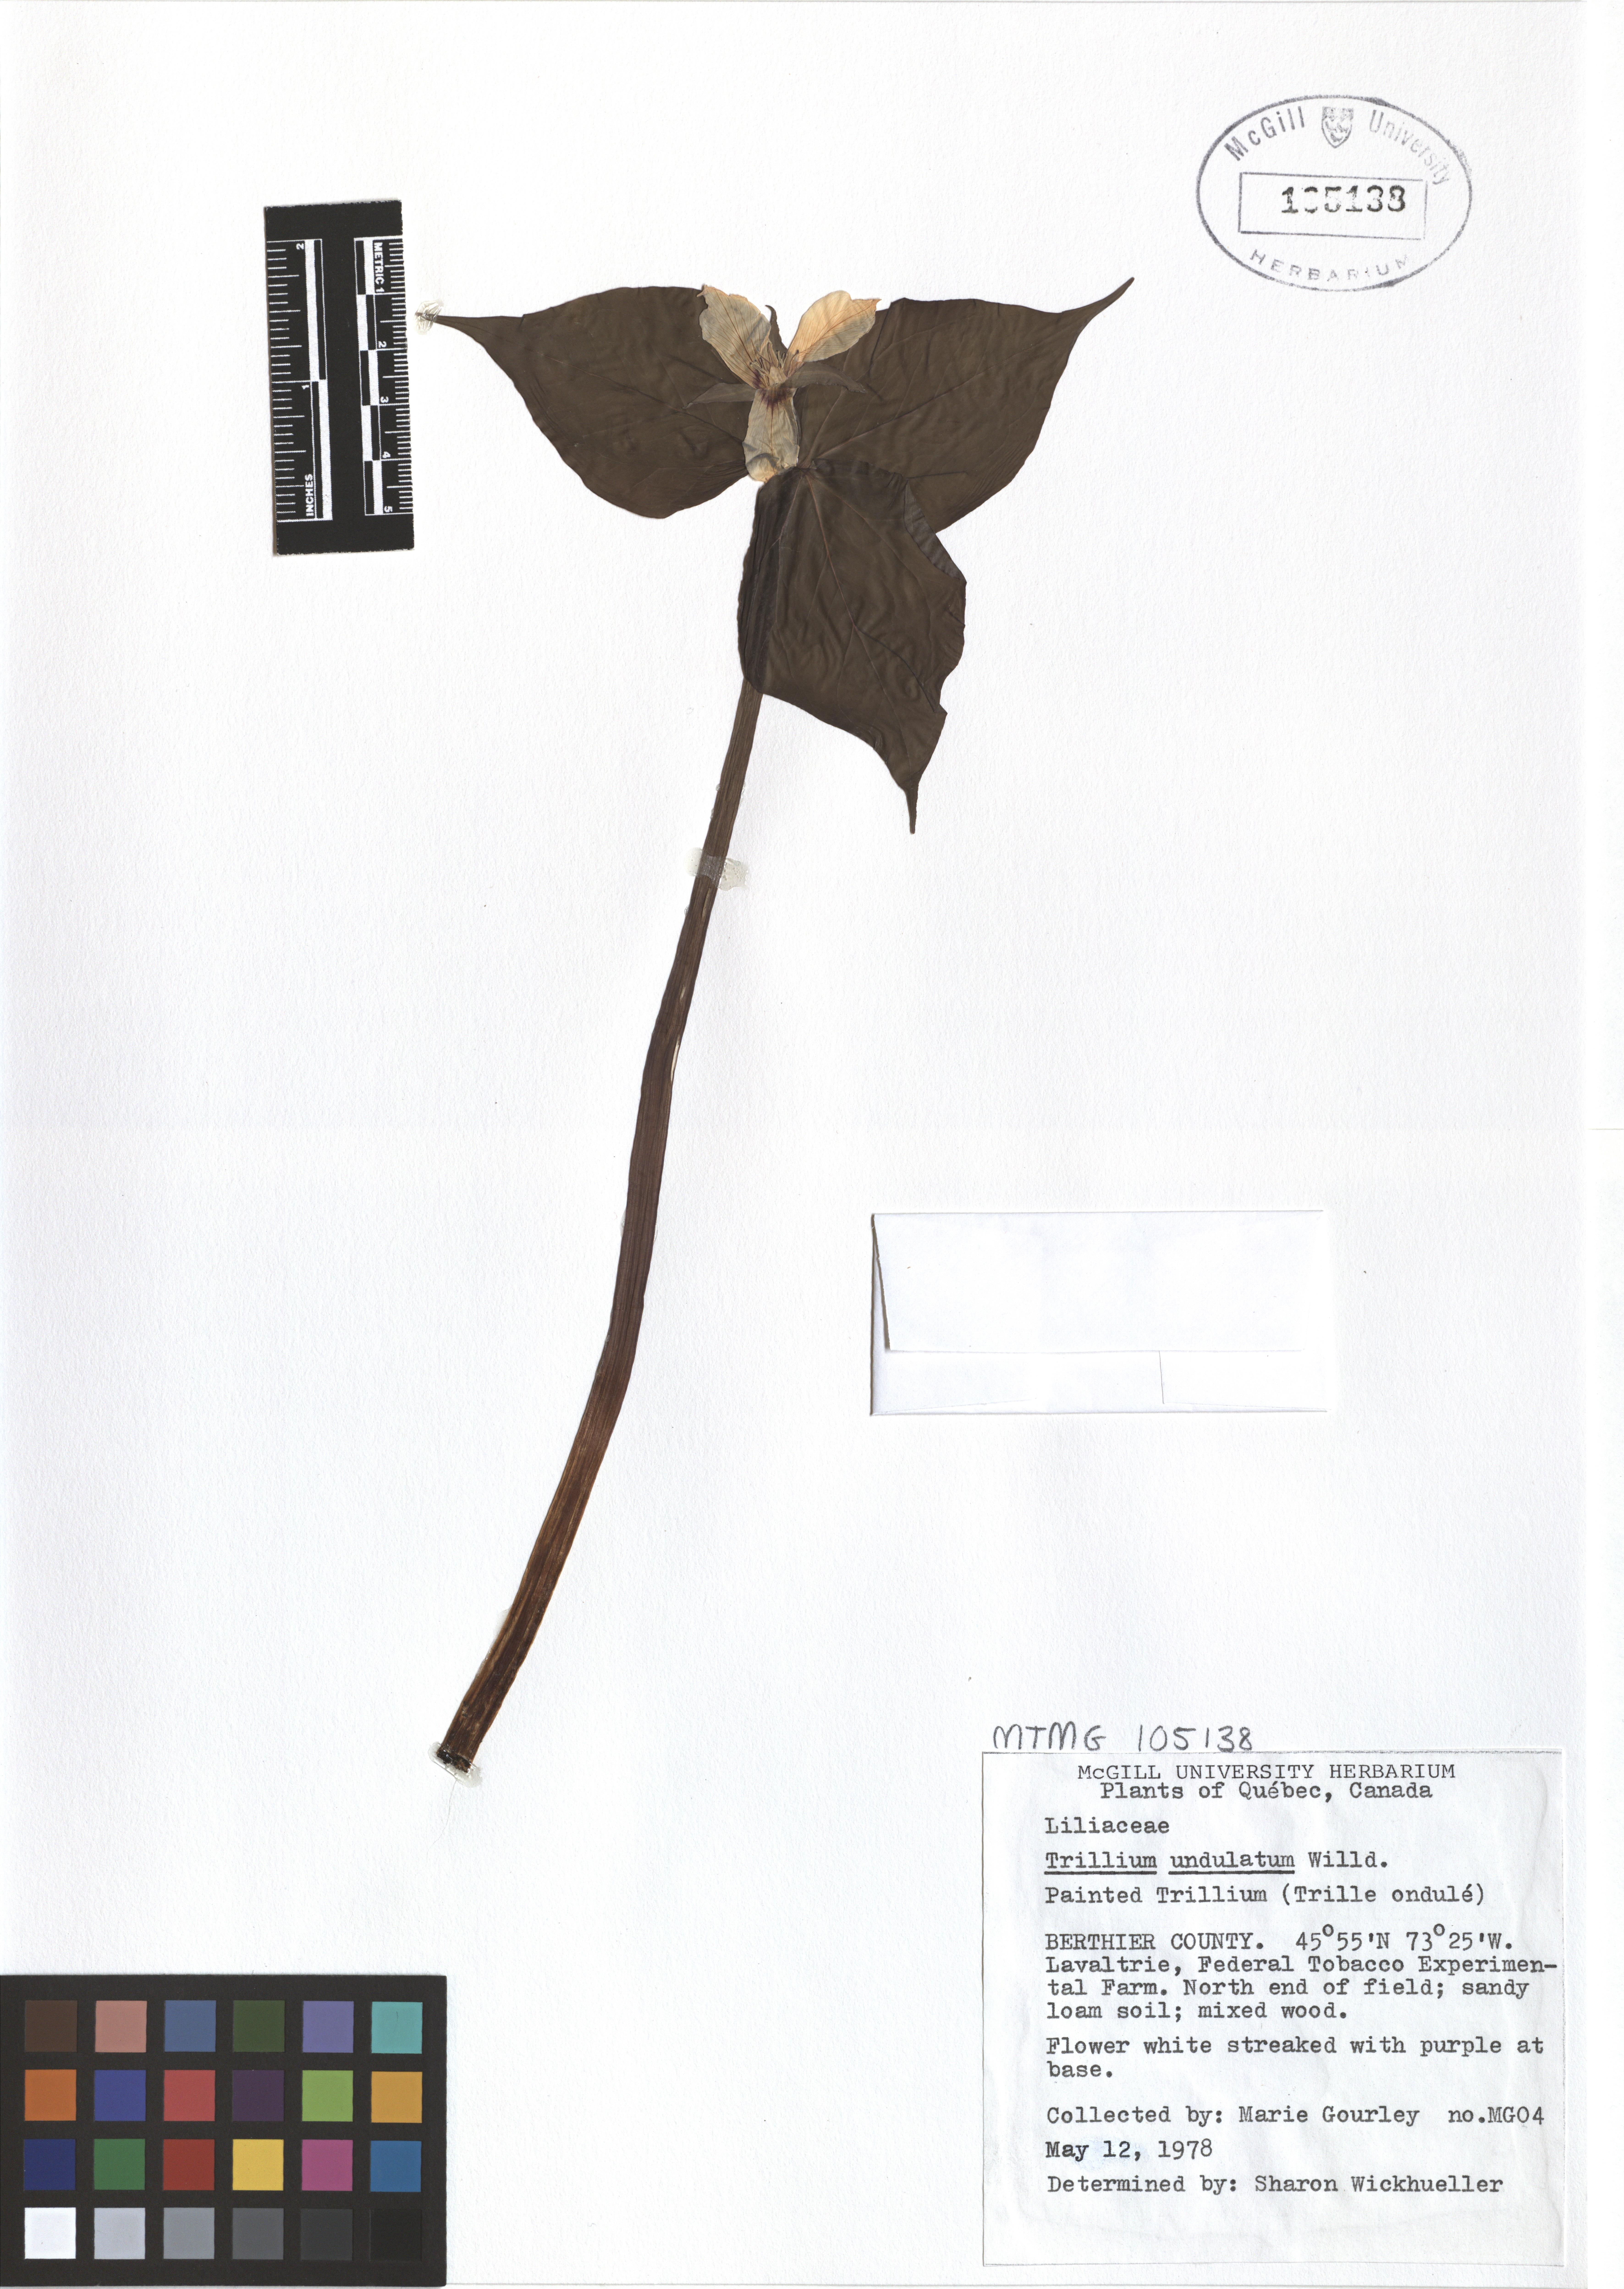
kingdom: Plantae
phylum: Tracheophyta
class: Liliopsida
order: Liliales
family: Melanthiaceae
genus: Trillium
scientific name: Trillium undulatum
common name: Paint trillium
